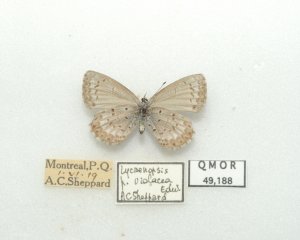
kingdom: Animalia
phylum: Arthropoda
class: Insecta
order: Lepidoptera
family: Lycaenidae
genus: Celastrina
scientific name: Celastrina lucia
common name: Northern Spring Azure
